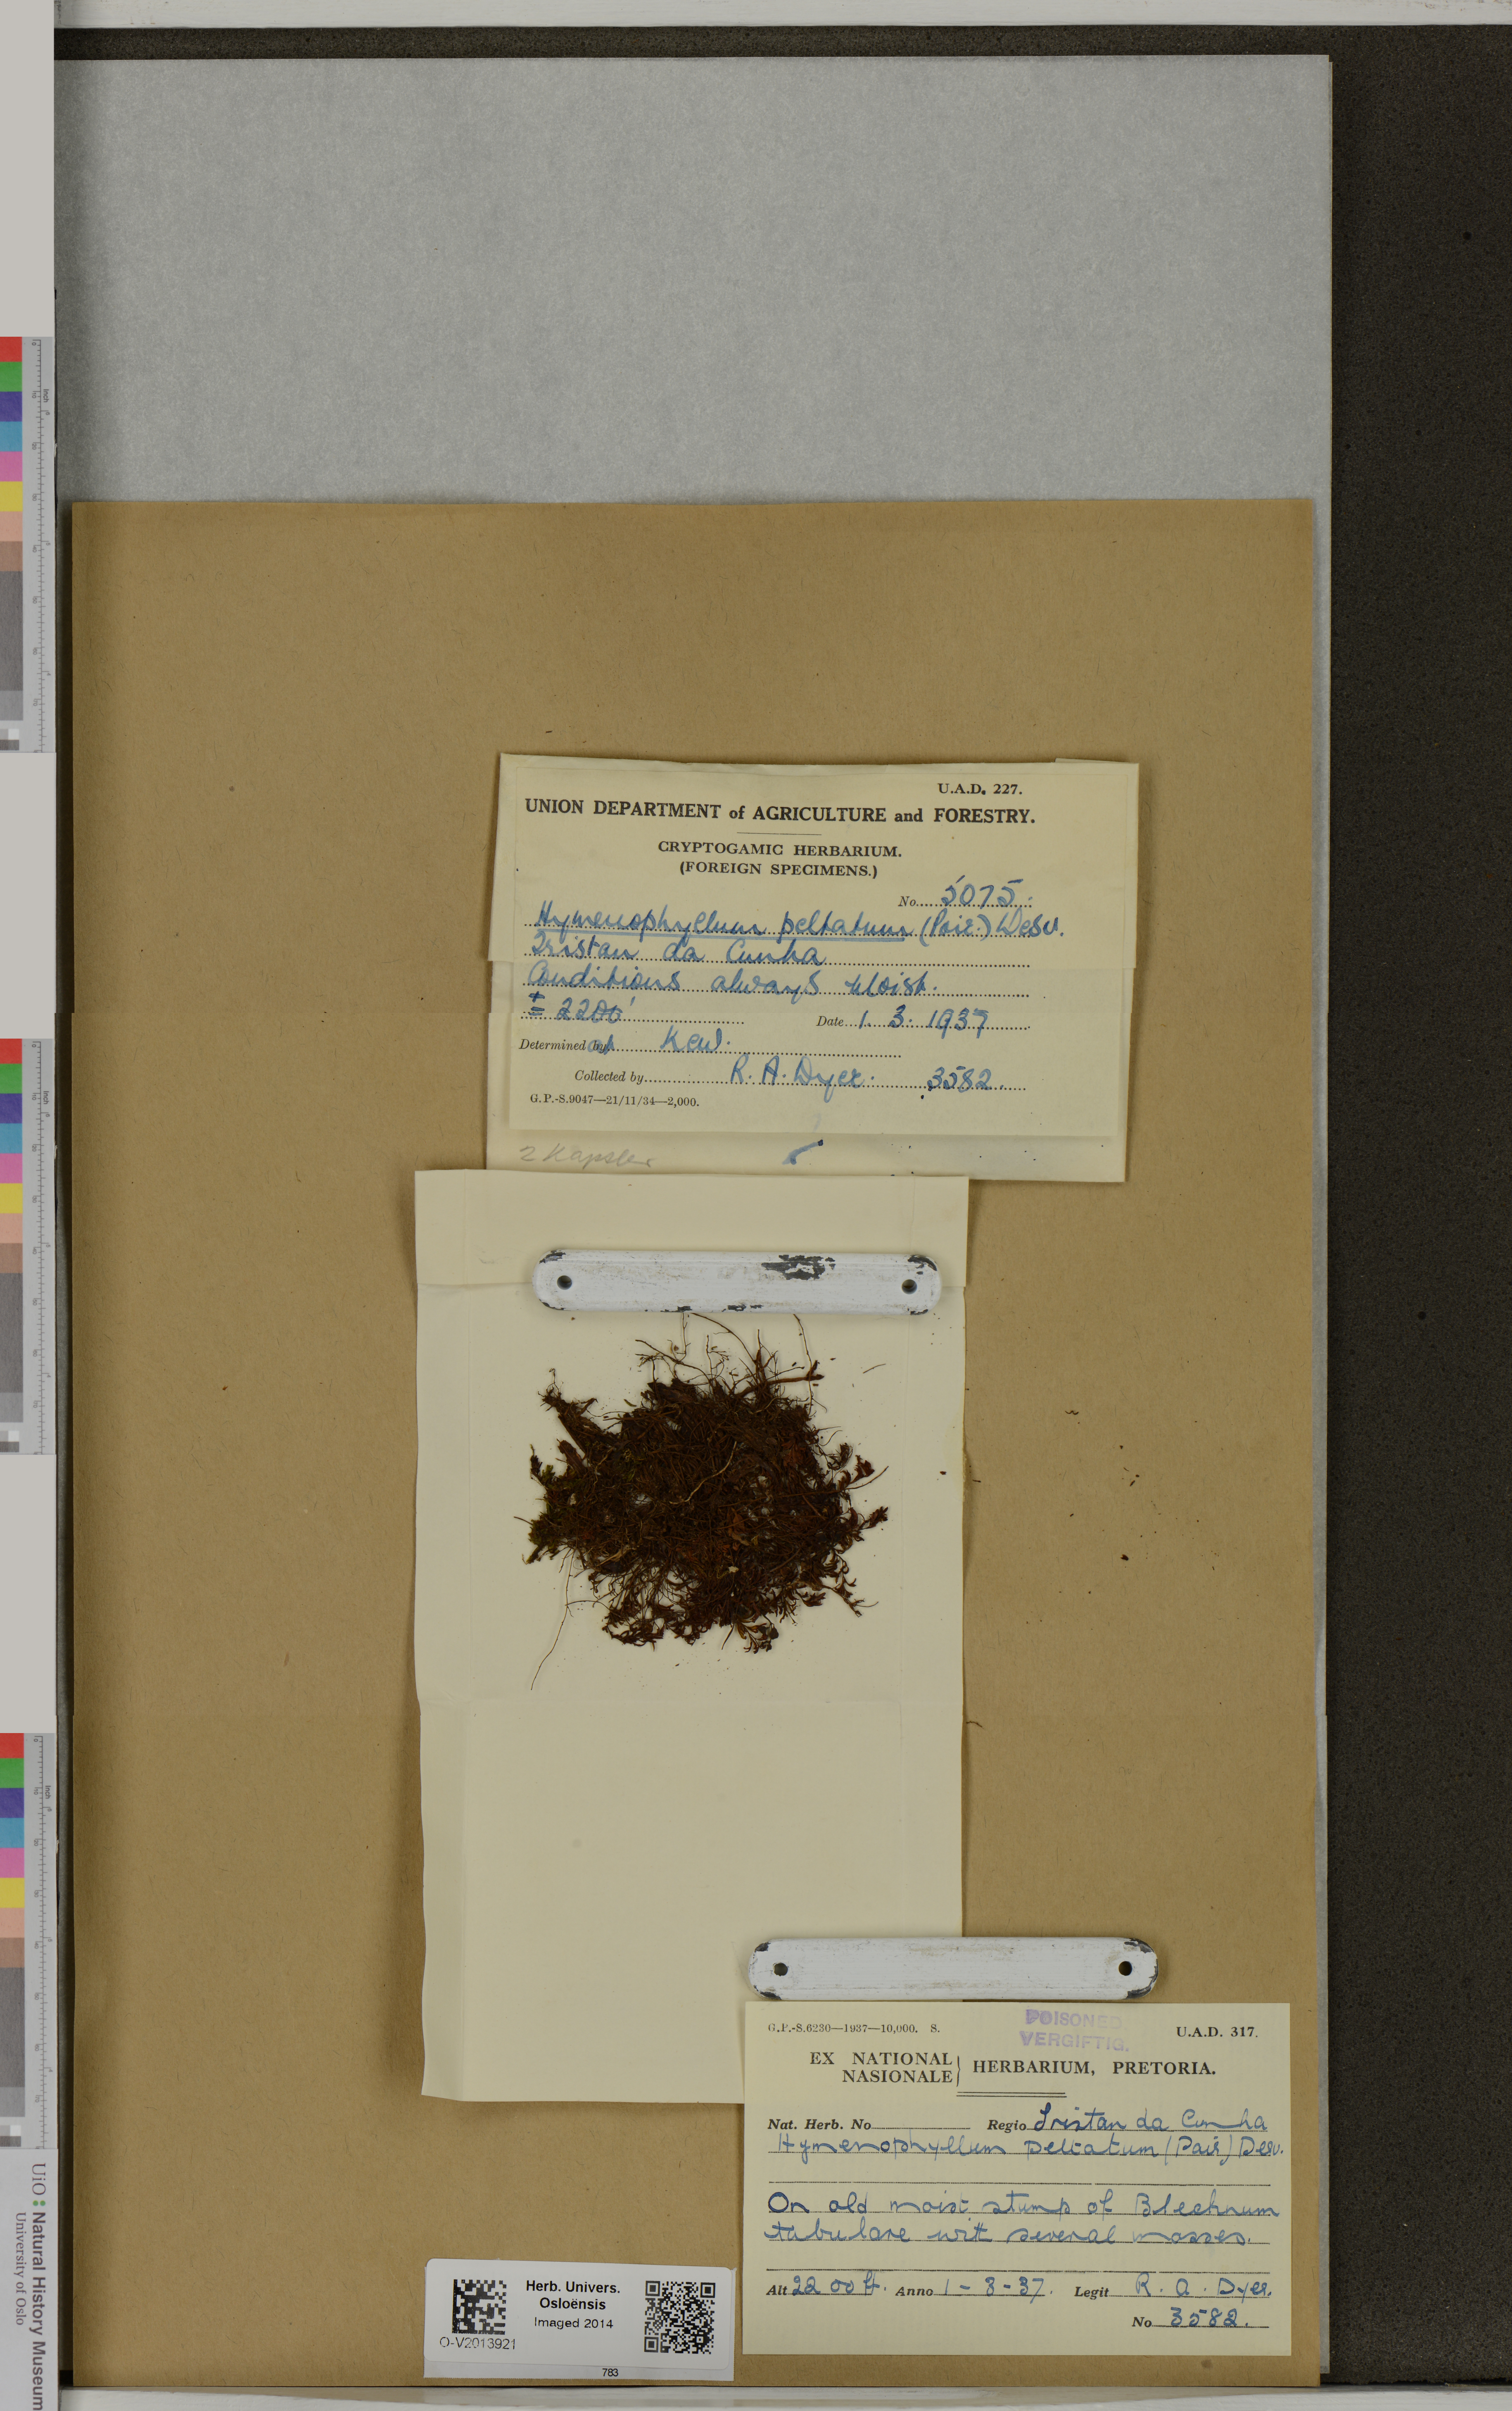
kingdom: Plantae
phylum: Tracheophyta
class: Polypodiopsida
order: Hymenophyllales
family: Hymenophyllaceae
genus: Hymenophyllum
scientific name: Hymenophyllum peltatum
